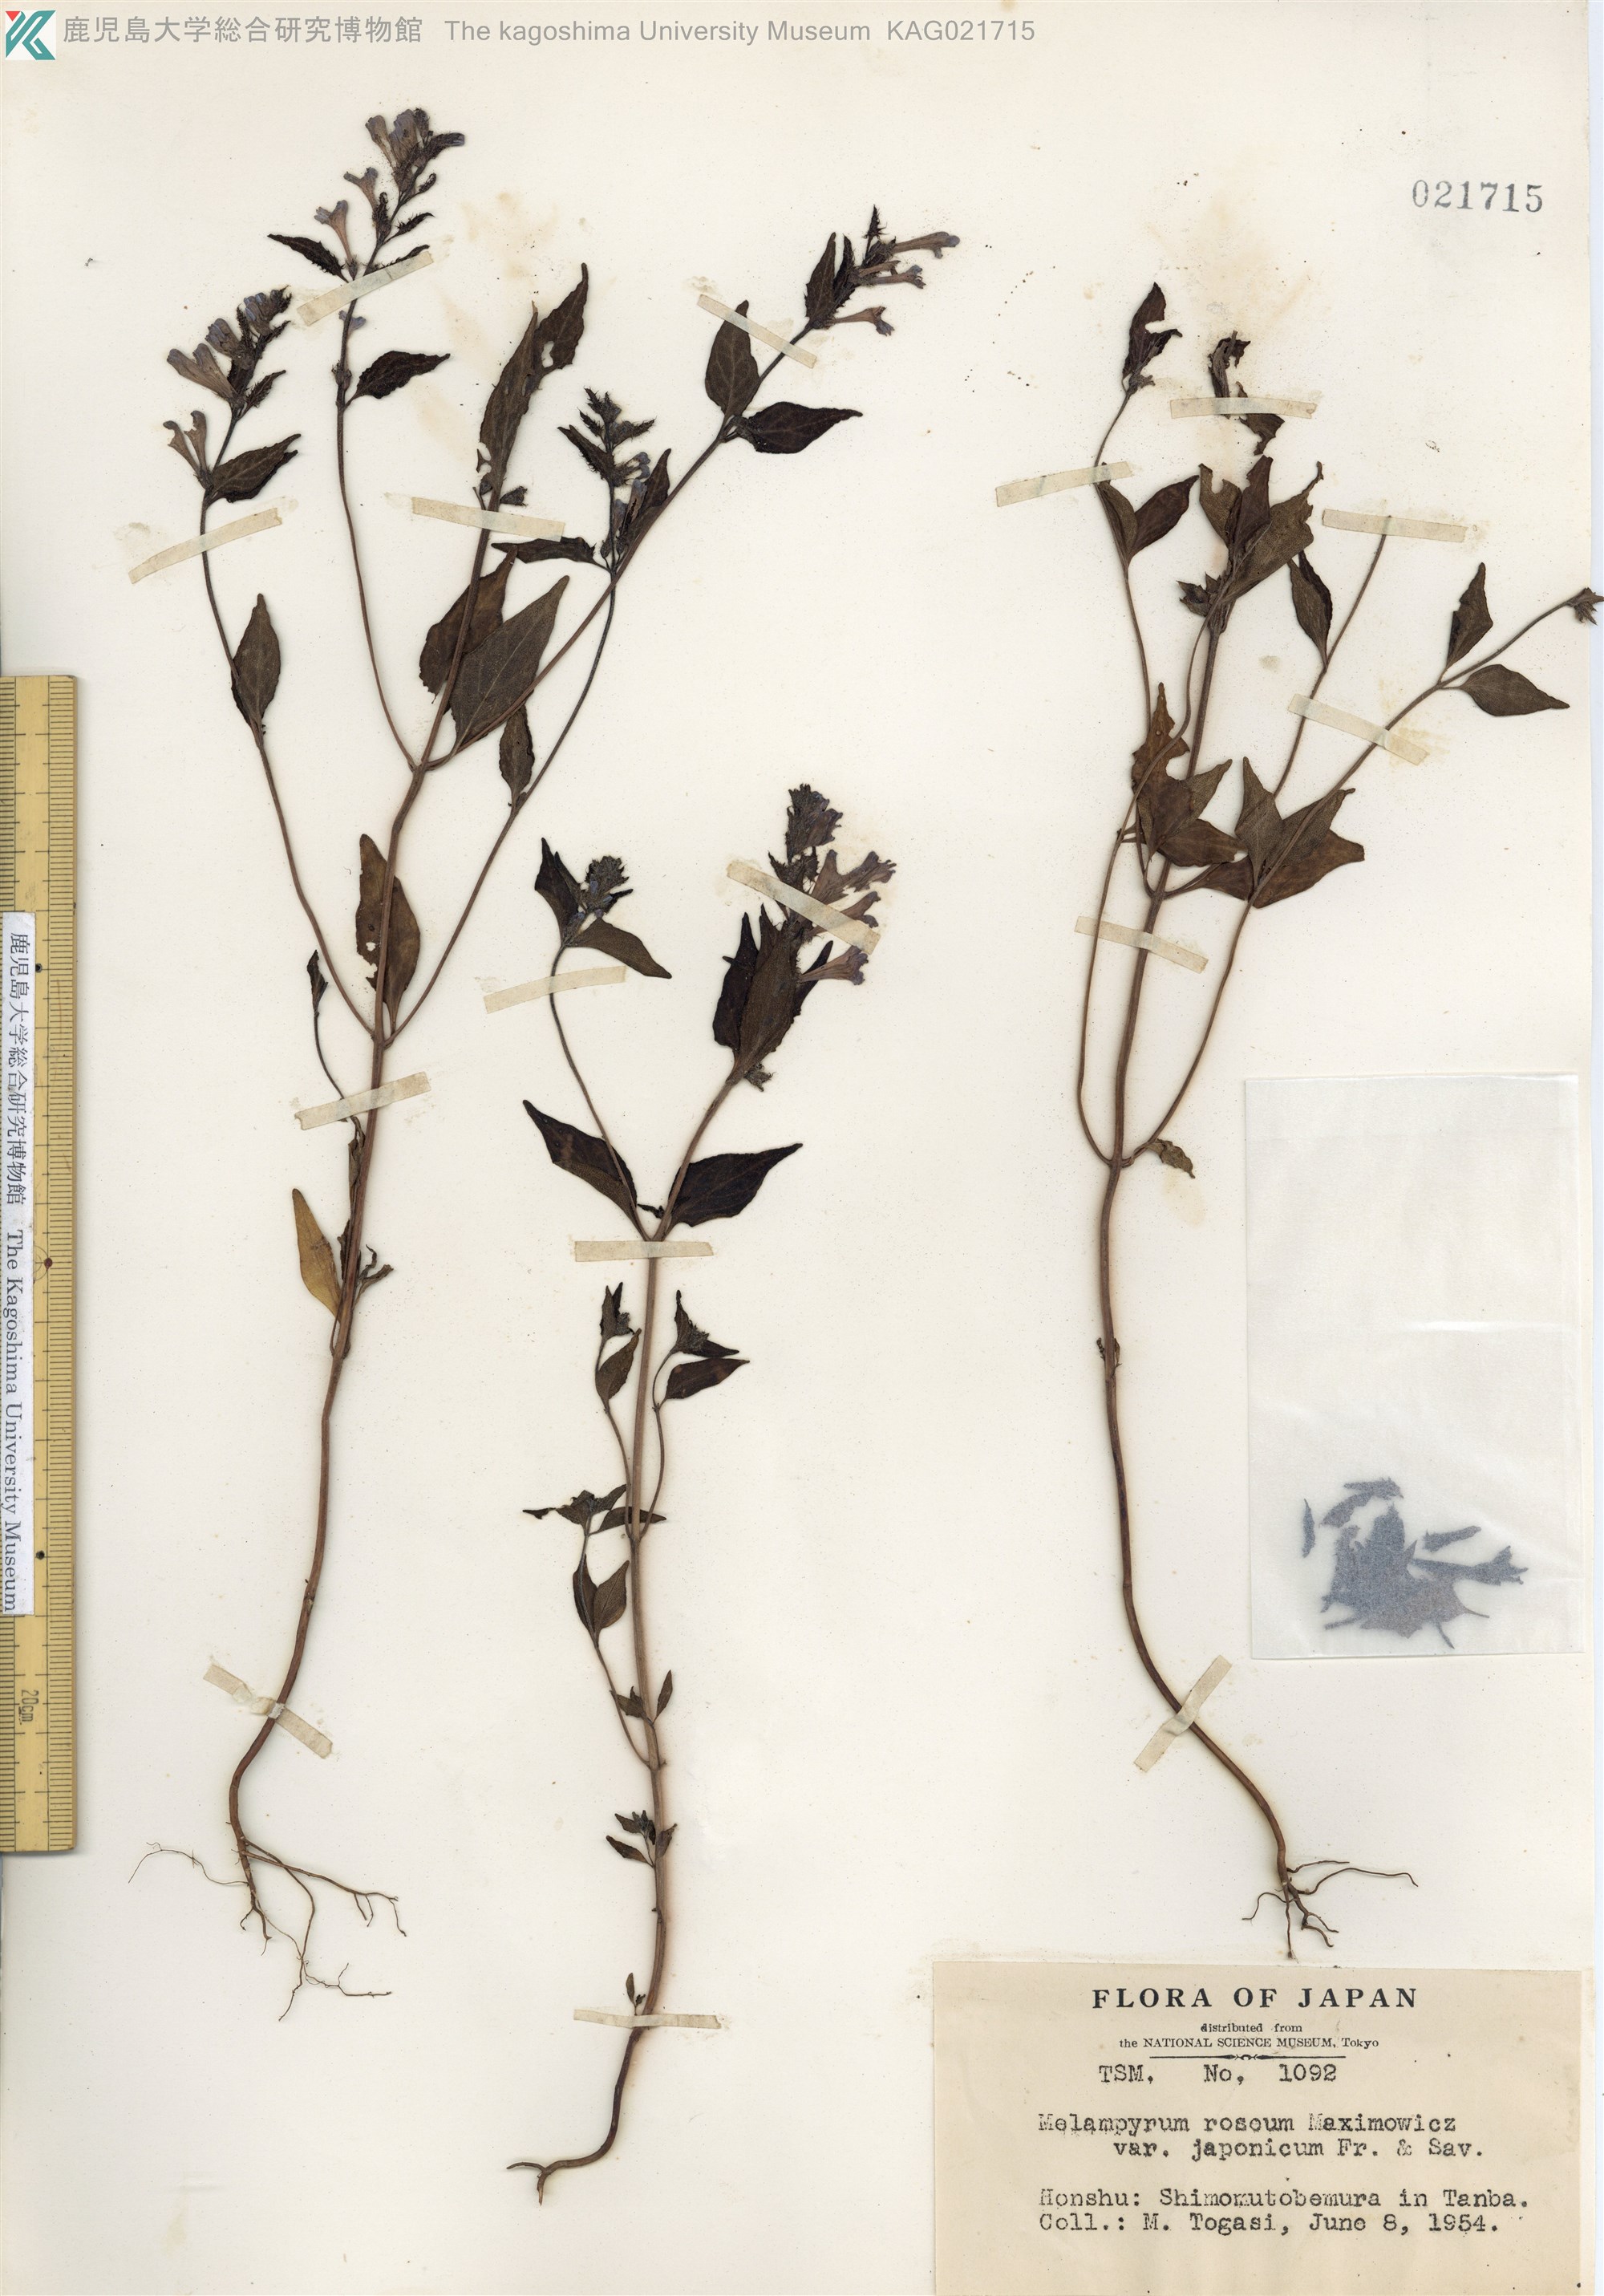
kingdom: Plantae
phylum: Tracheophyta
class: Magnoliopsida
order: Lamiales
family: Orobanchaceae
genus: Melampyrum
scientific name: Melampyrum roseum
